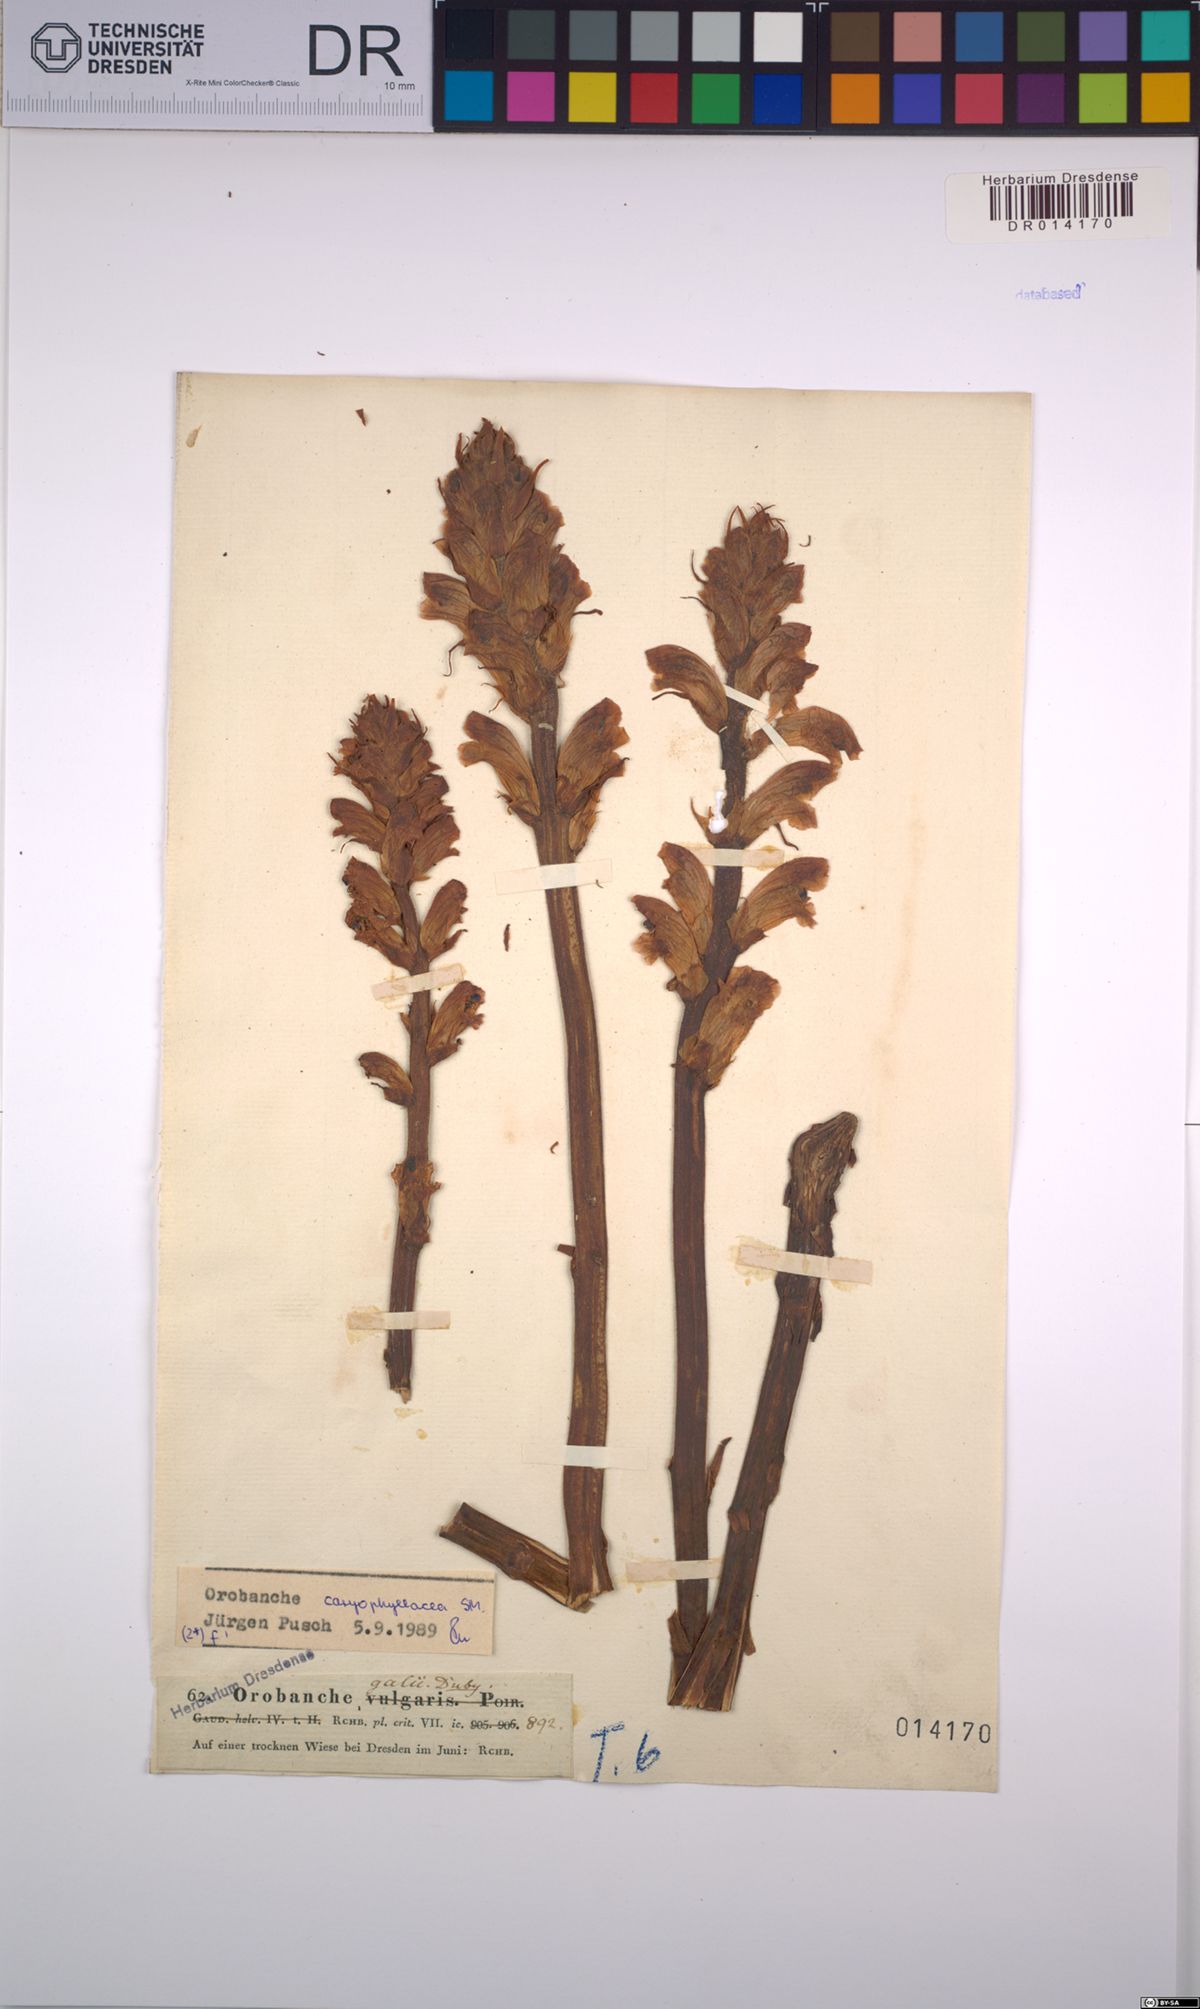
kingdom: Plantae
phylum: Tracheophyta
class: Magnoliopsida
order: Lamiales
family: Orobanchaceae
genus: Orobanche
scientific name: Orobanche caryophyllacea
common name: Bedstraw broomrape
